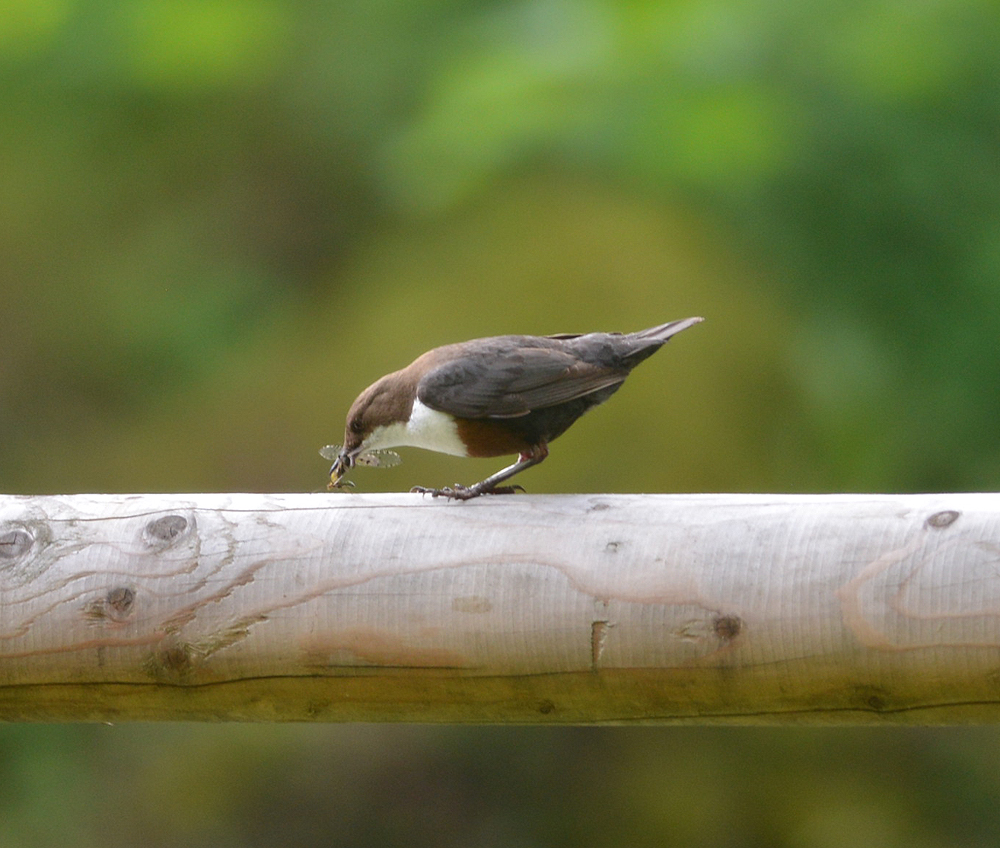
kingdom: Animalia
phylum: Chordata
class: Aves
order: Passeriformes
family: Cinclidae
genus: Cinclus
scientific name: Cinclus cinclus
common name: White-throated dipper
